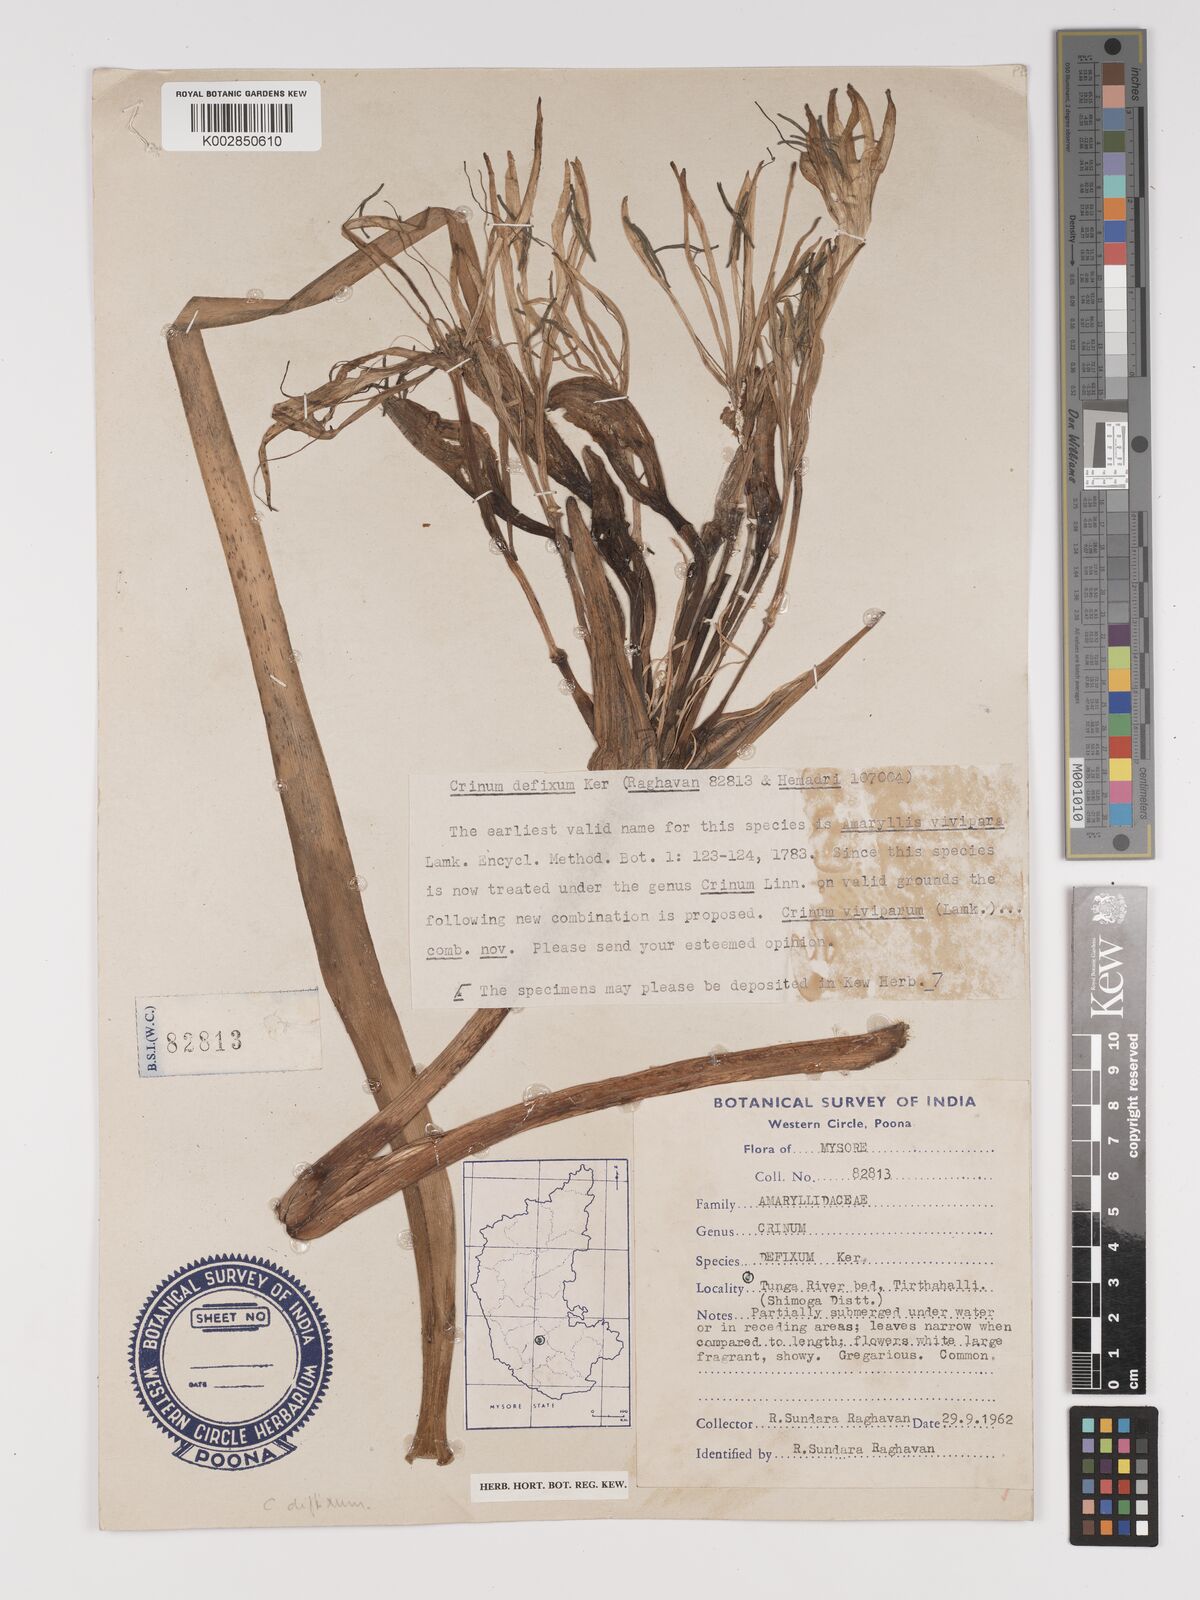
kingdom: Plantae
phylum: Tracheophyta
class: Liliopsida
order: Asparagales
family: Amaryllidaceae
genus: Crinum
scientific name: Crinum defixum
